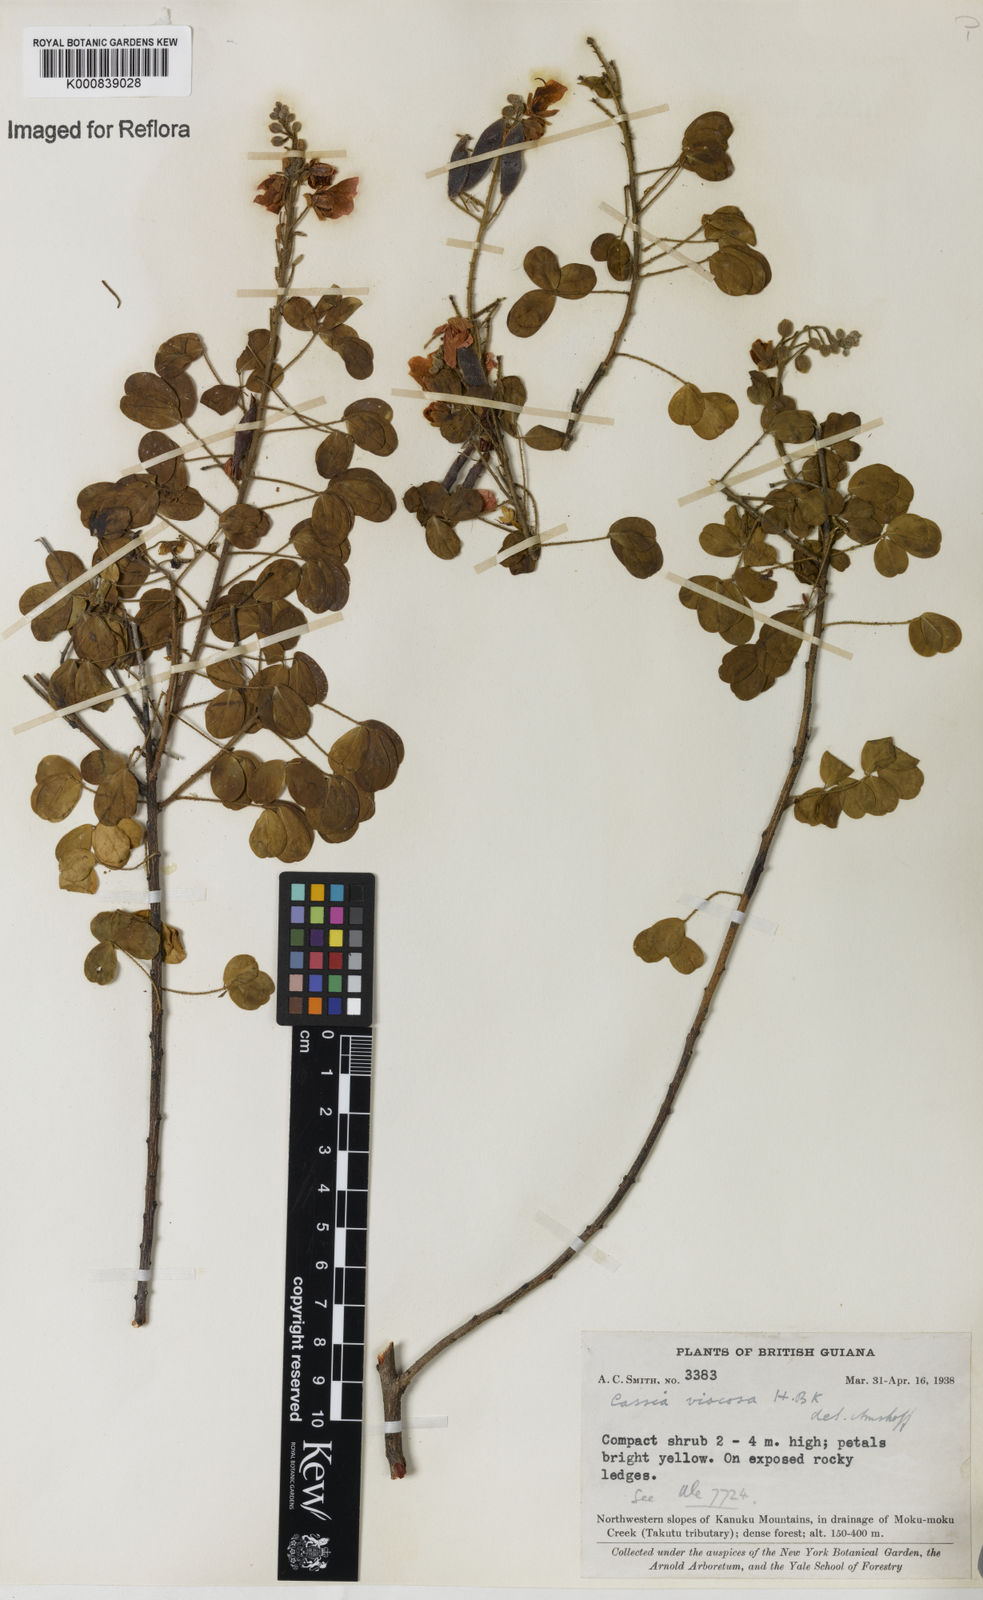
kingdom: Plantae
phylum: Tracheophyta
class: Magnoliopsida
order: Fabales
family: Fabaceae
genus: Chamaecrista
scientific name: Chamaecrista viscosa
